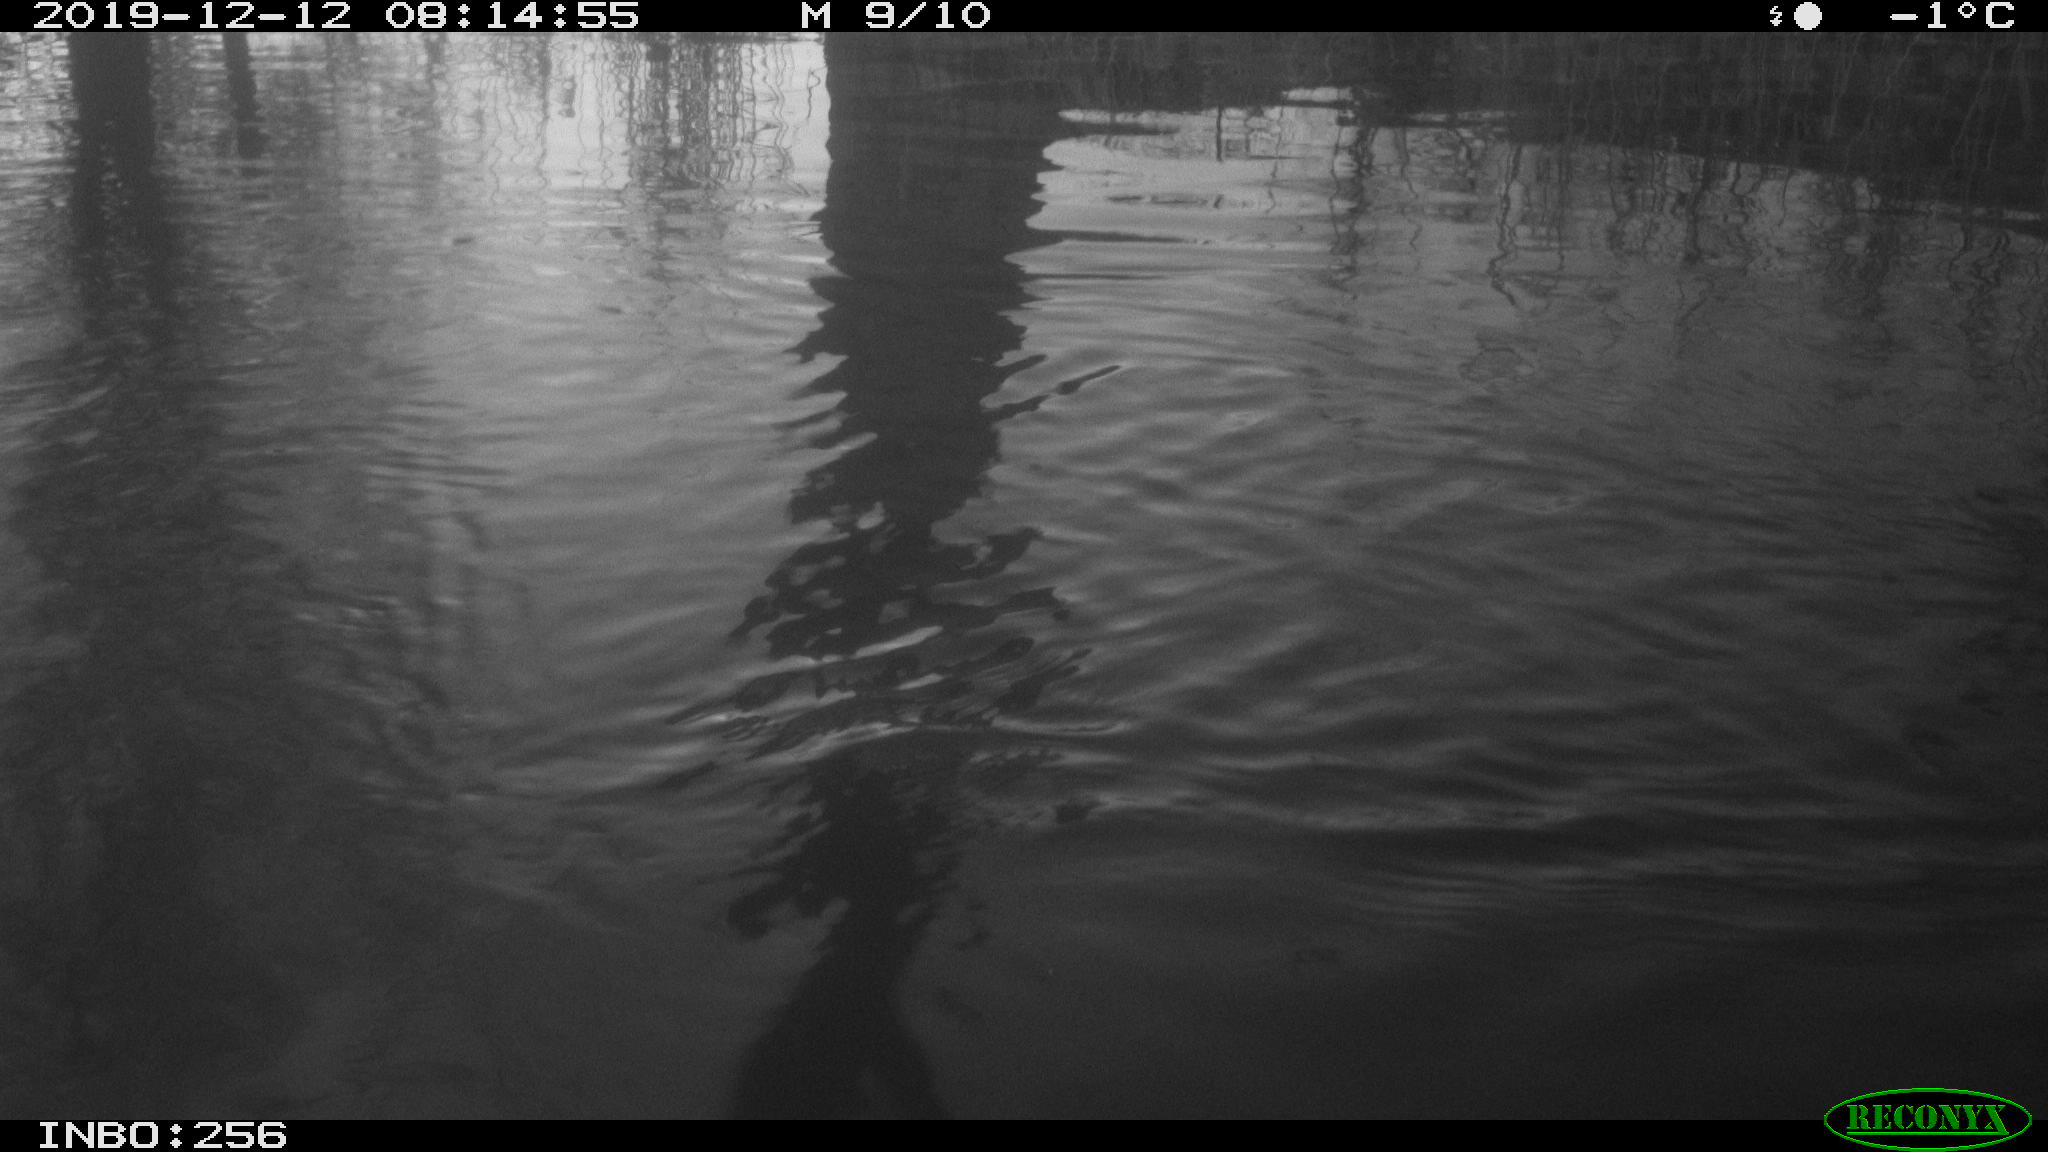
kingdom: Animalia
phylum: Chordata
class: Mammalia
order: Rodentia
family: Muridae
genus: Rattus
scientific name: Rattus norvegicus
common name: Brown rat
